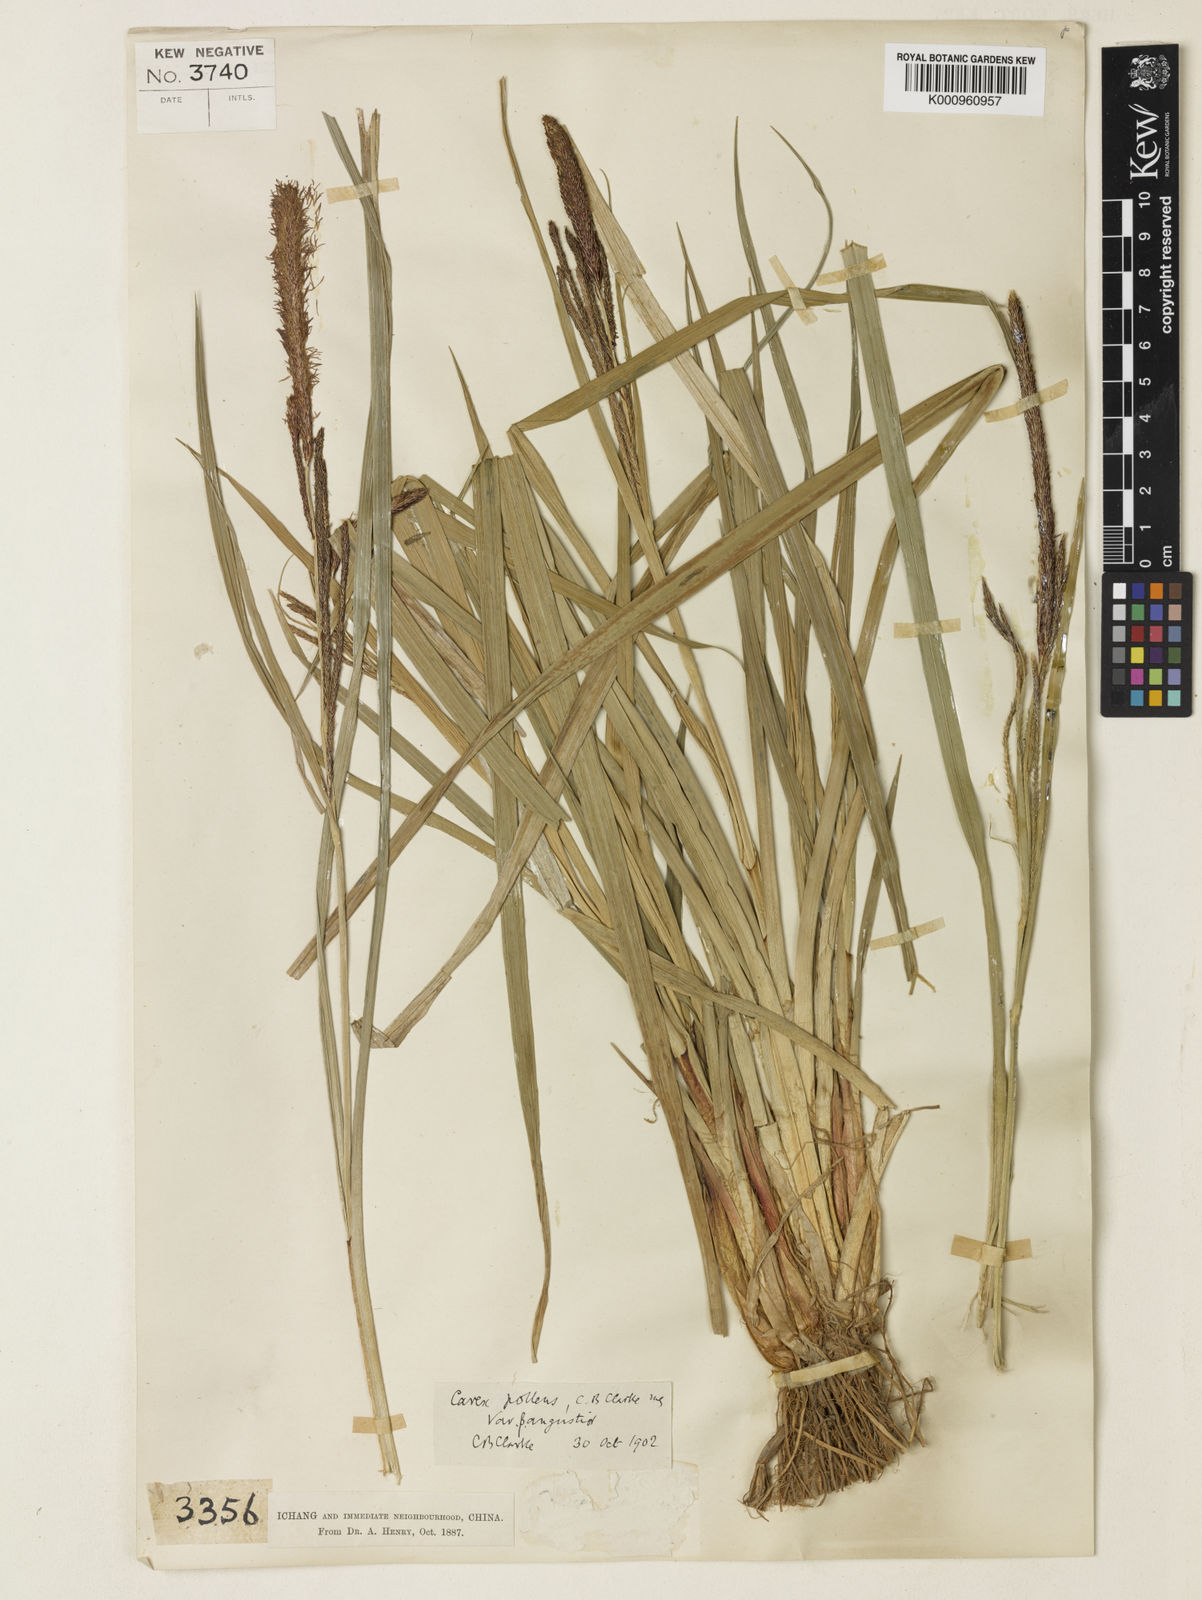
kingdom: Plantae
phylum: Tracheophyta
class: Liliopsida
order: Poales
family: Cyperaceae
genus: Carex
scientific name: Carex dispalata
